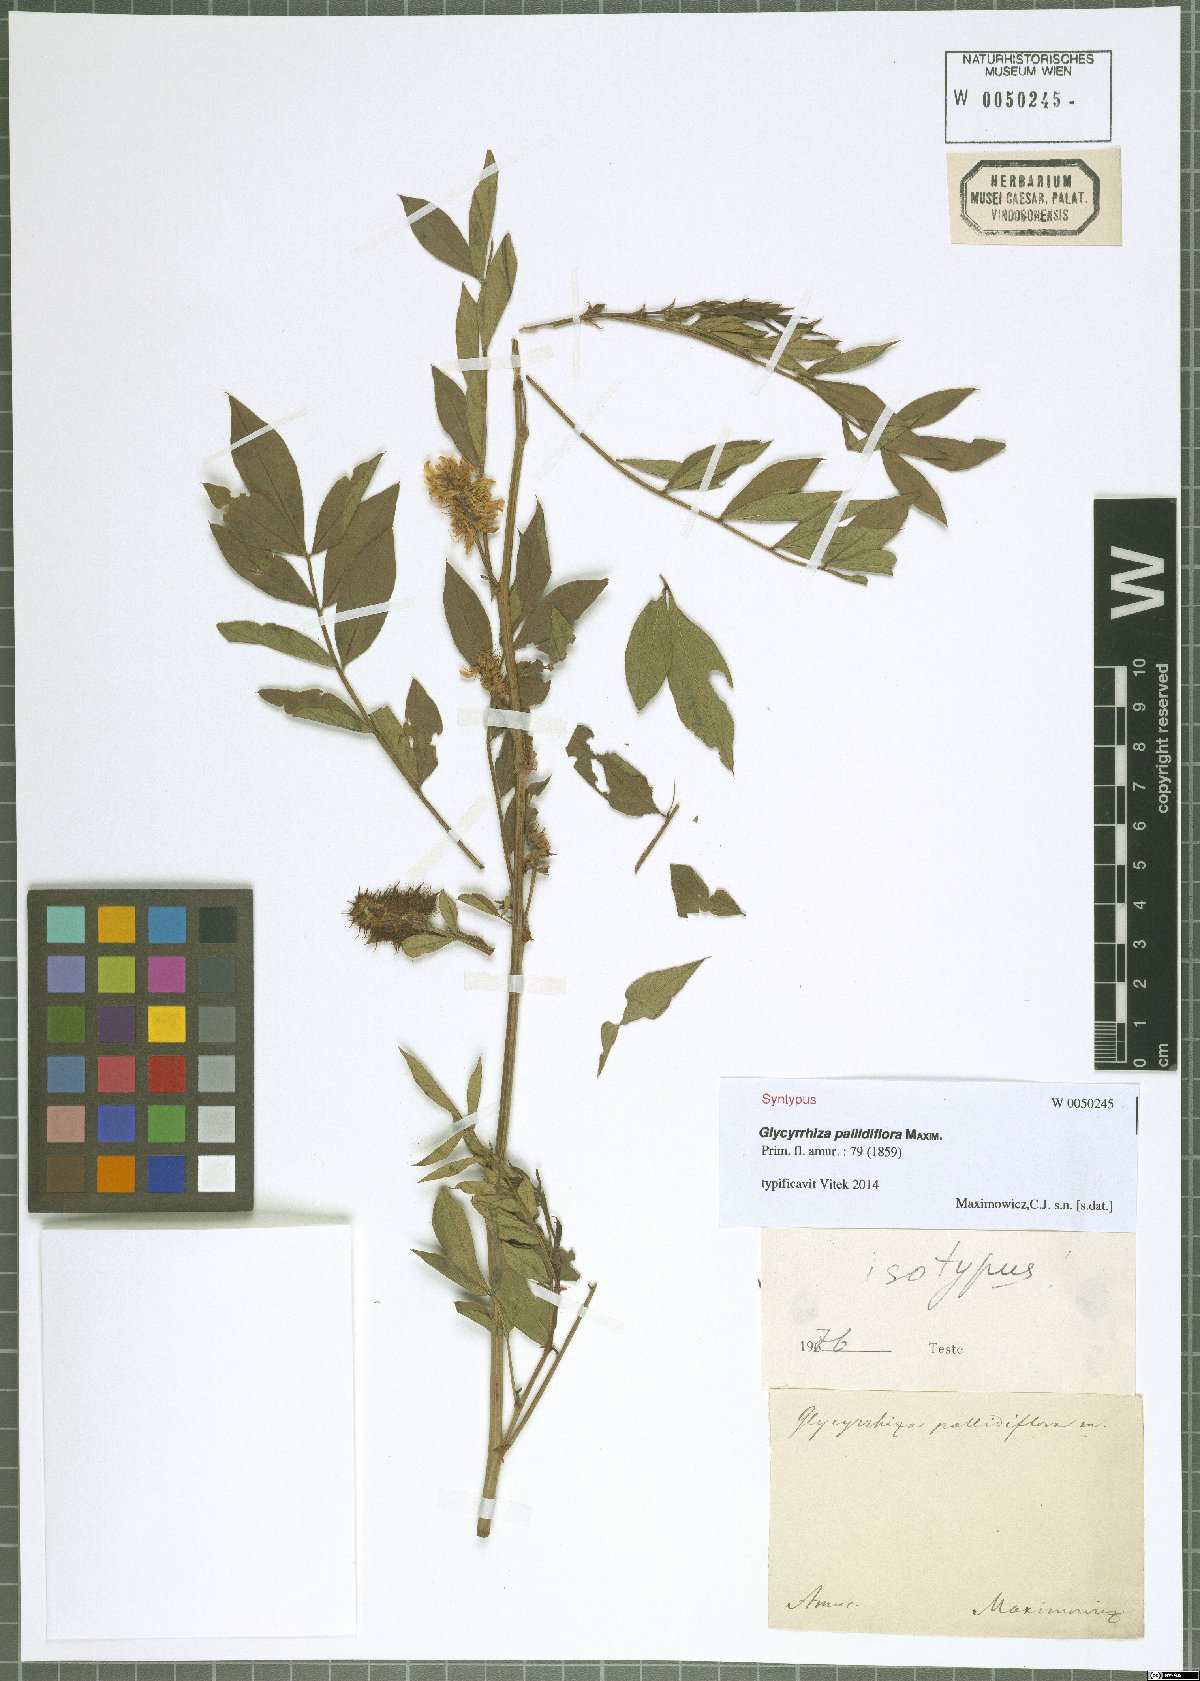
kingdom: Plantae
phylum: Tracheophyta
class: Magnoliopsida
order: Fabales
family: Fabaceae
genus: Glycyrrhiza
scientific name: Glycyrrhiza pallidiflora
